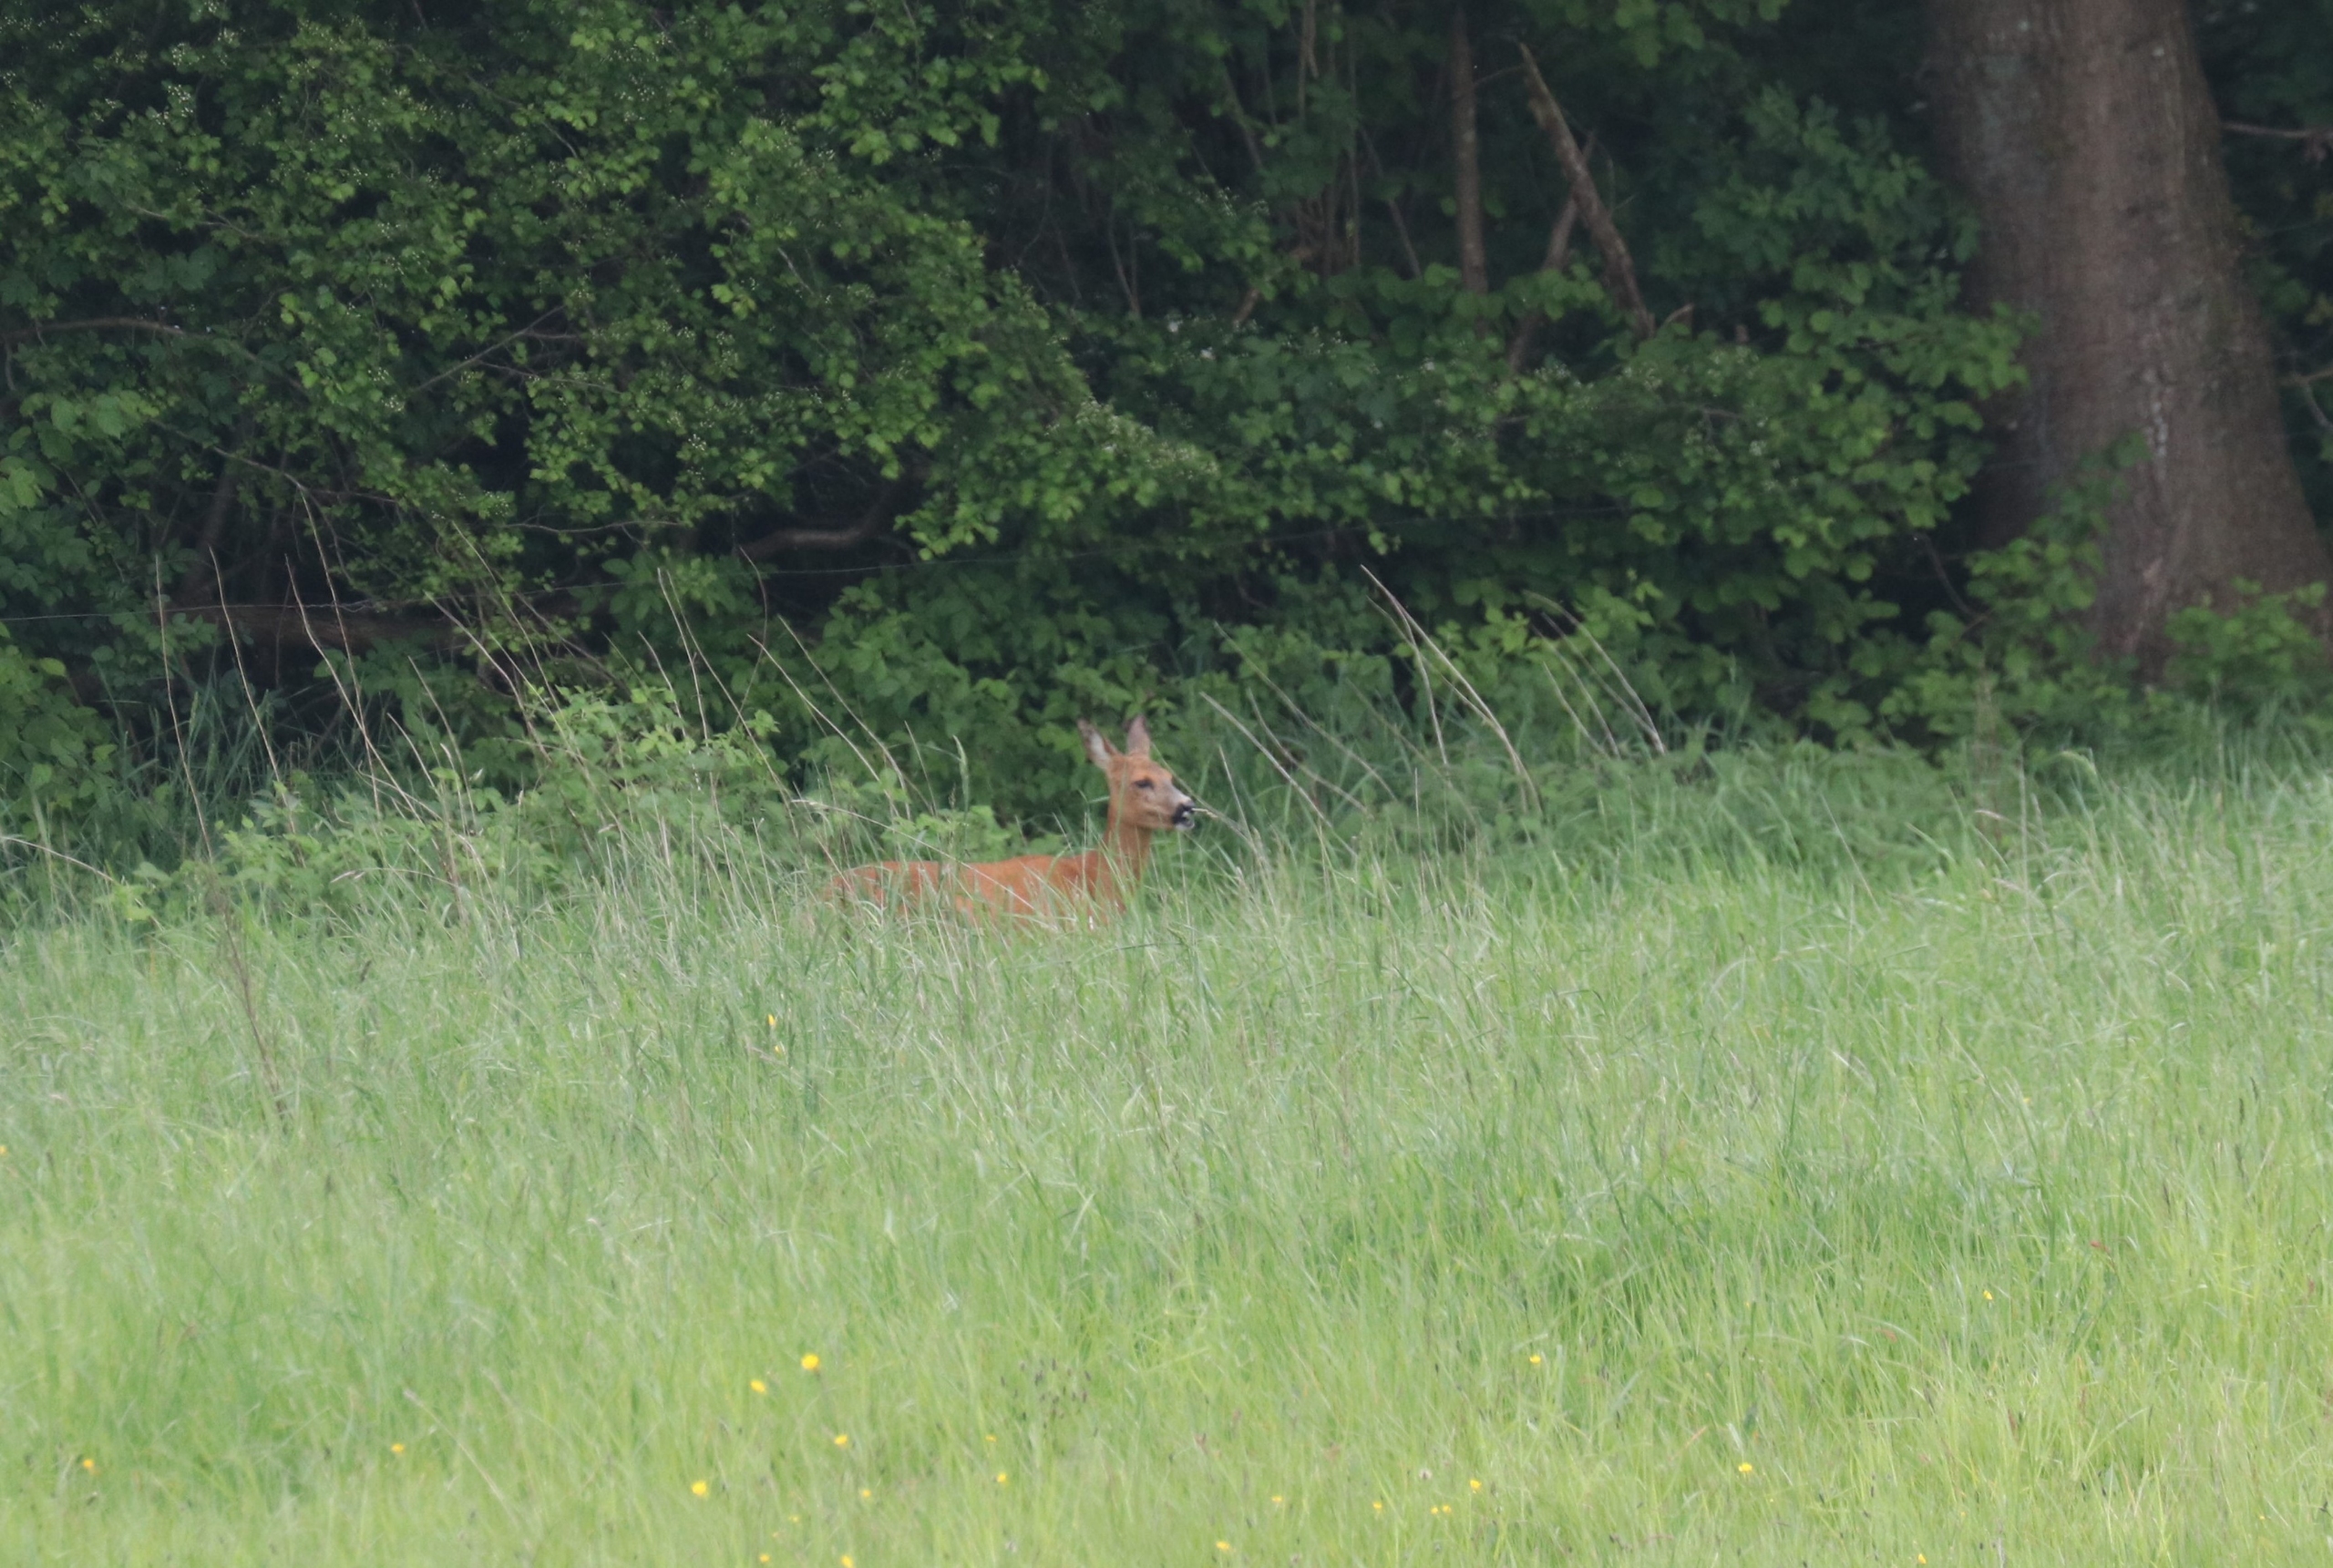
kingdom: Animalia
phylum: Chordata
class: Mammalia
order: Artiodactyla
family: Cervidae
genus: Capreolus
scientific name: Capreolus capreolus
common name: Rådyr
